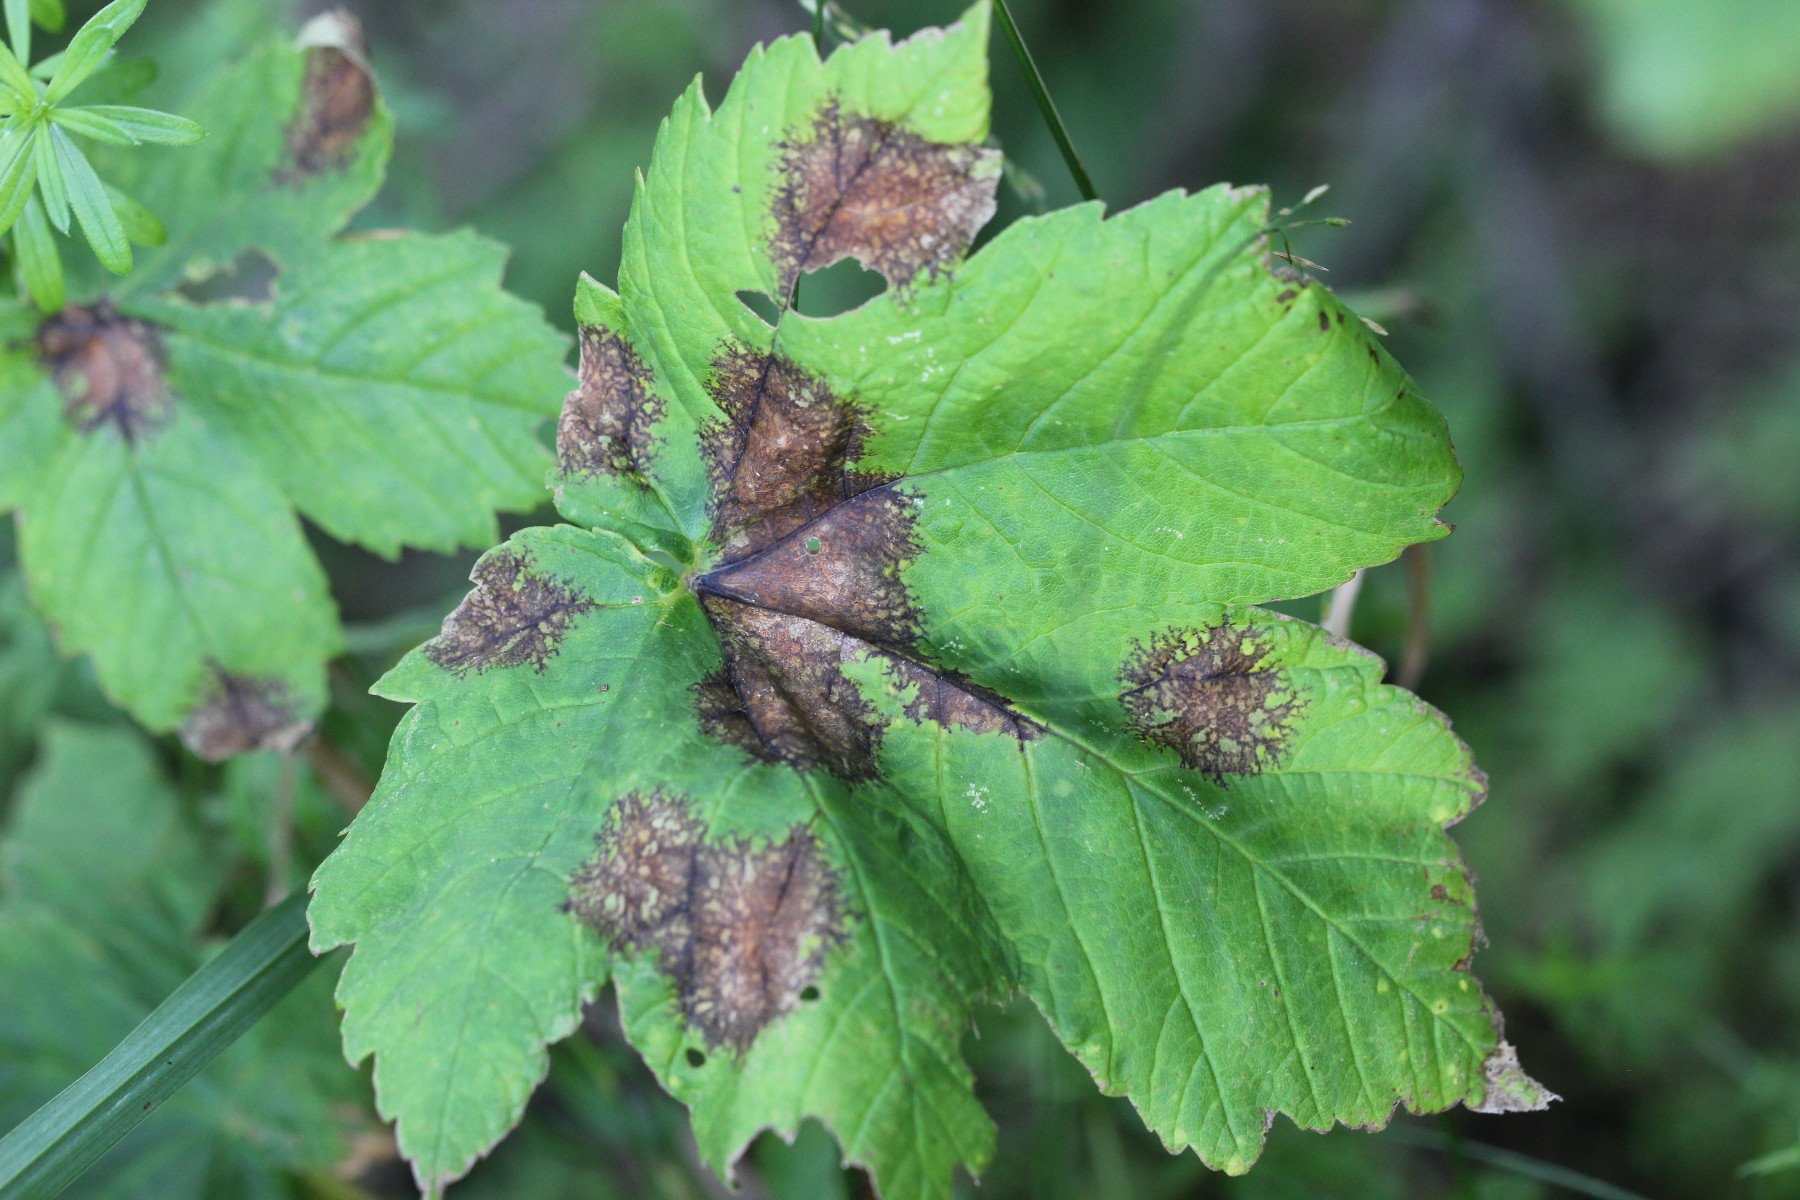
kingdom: Fungi
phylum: Ascomycota
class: Sordariomycetes
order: Diaporthales
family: Gnomoniaceae
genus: Pleuroceras
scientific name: Pleuroceras pseudoplatani
